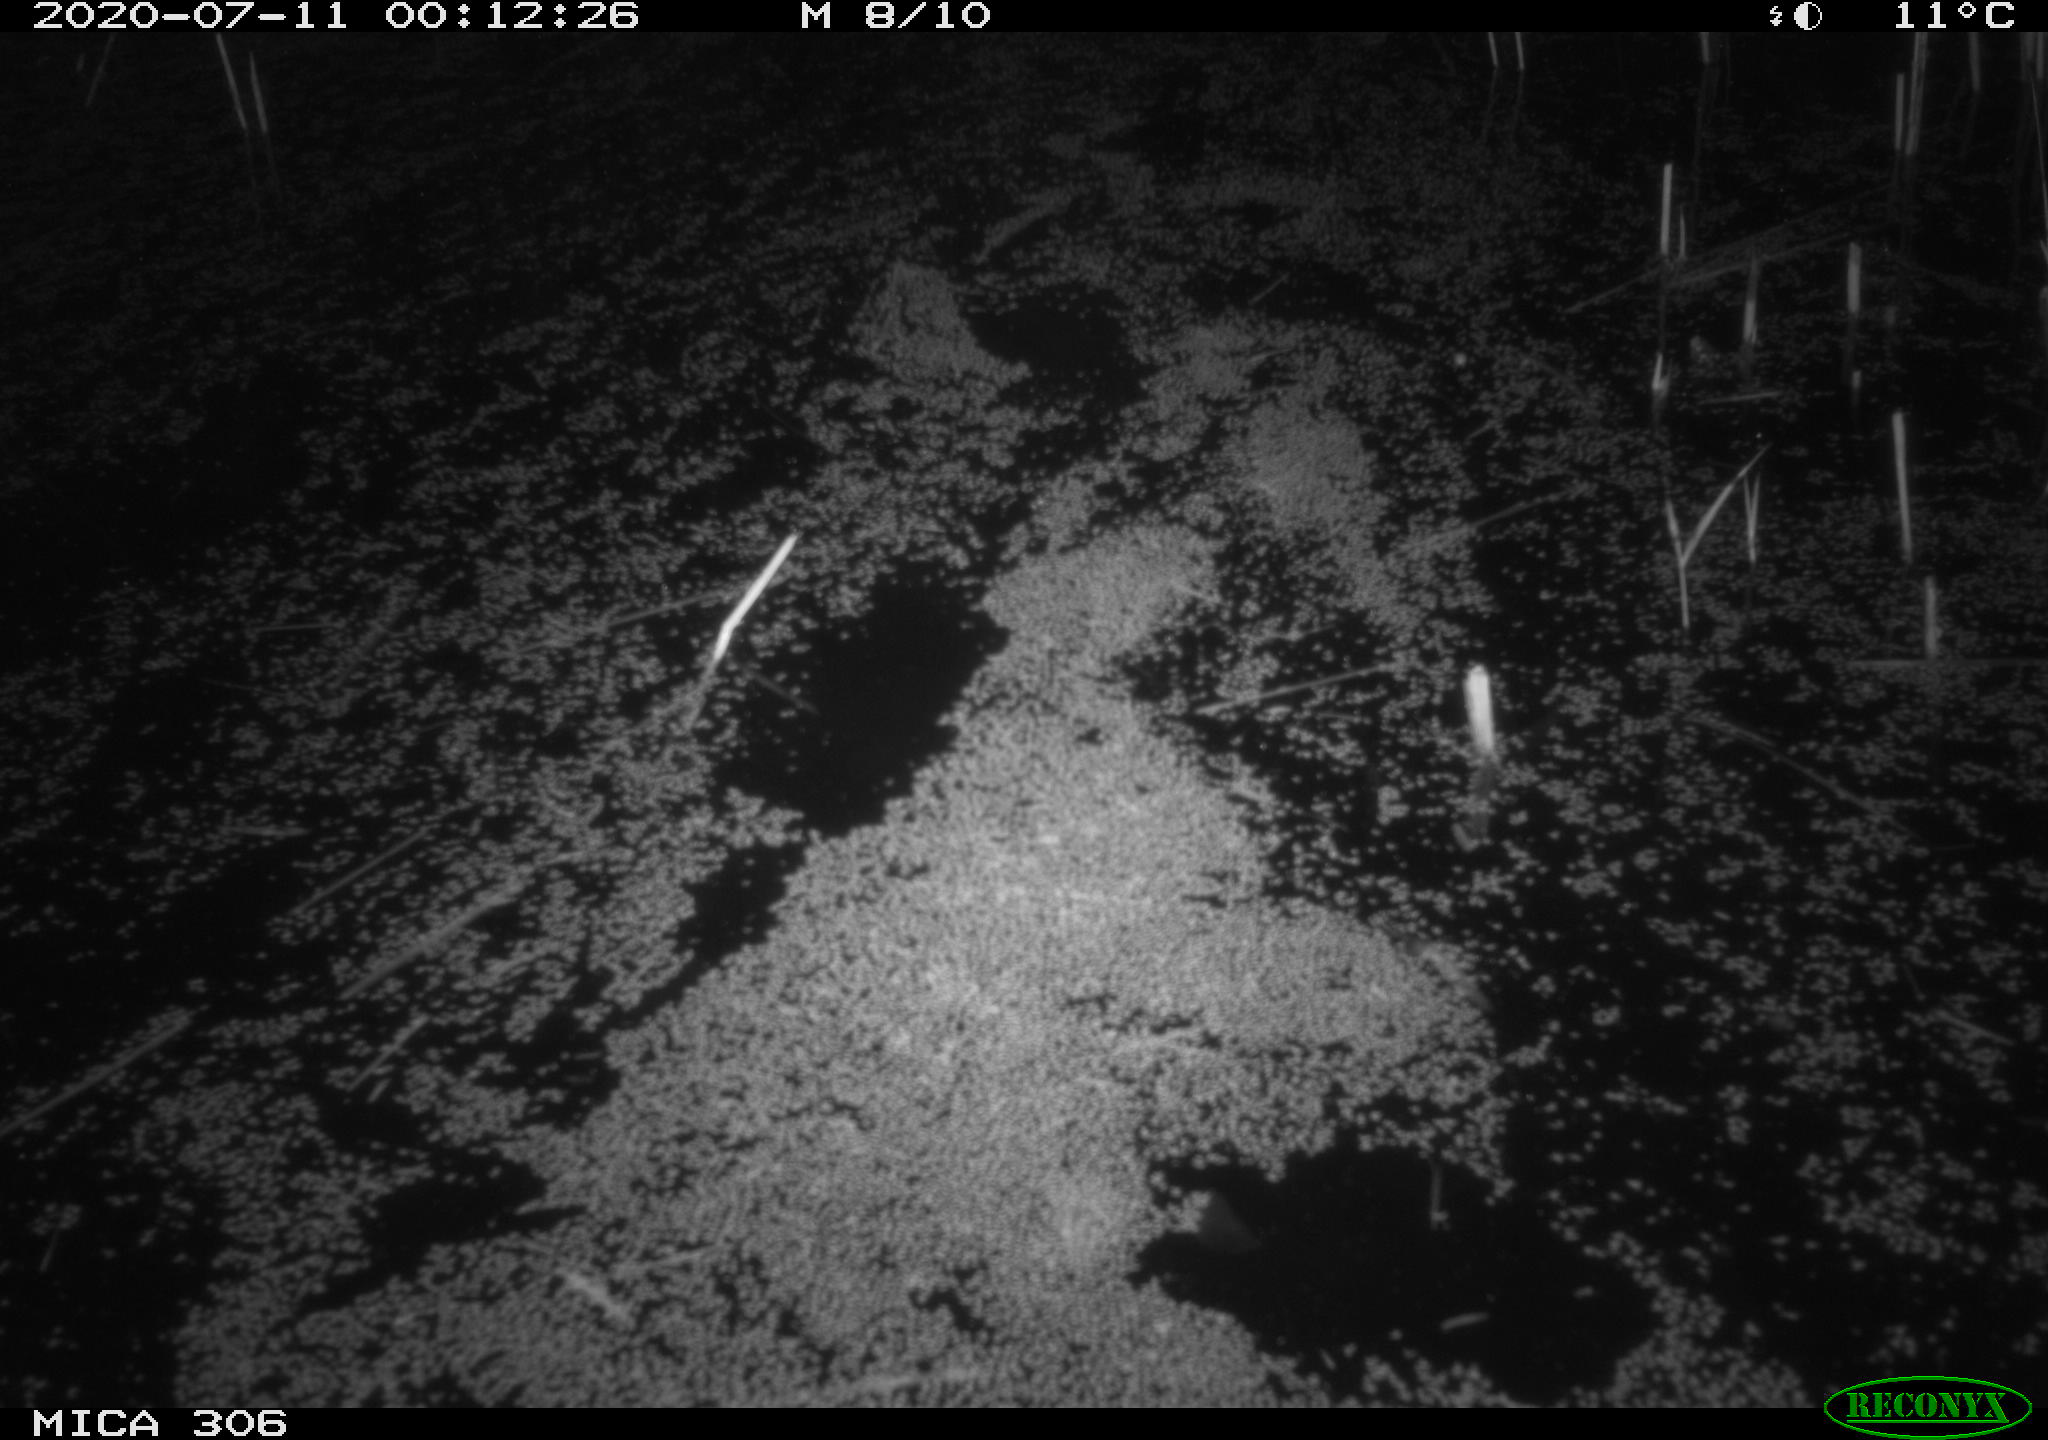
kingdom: Animalia
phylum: Chordata
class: Mammalia
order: Rodentia
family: Cricetidae
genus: Ondatra
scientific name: Ondatra zibethicus
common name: Muskrat
